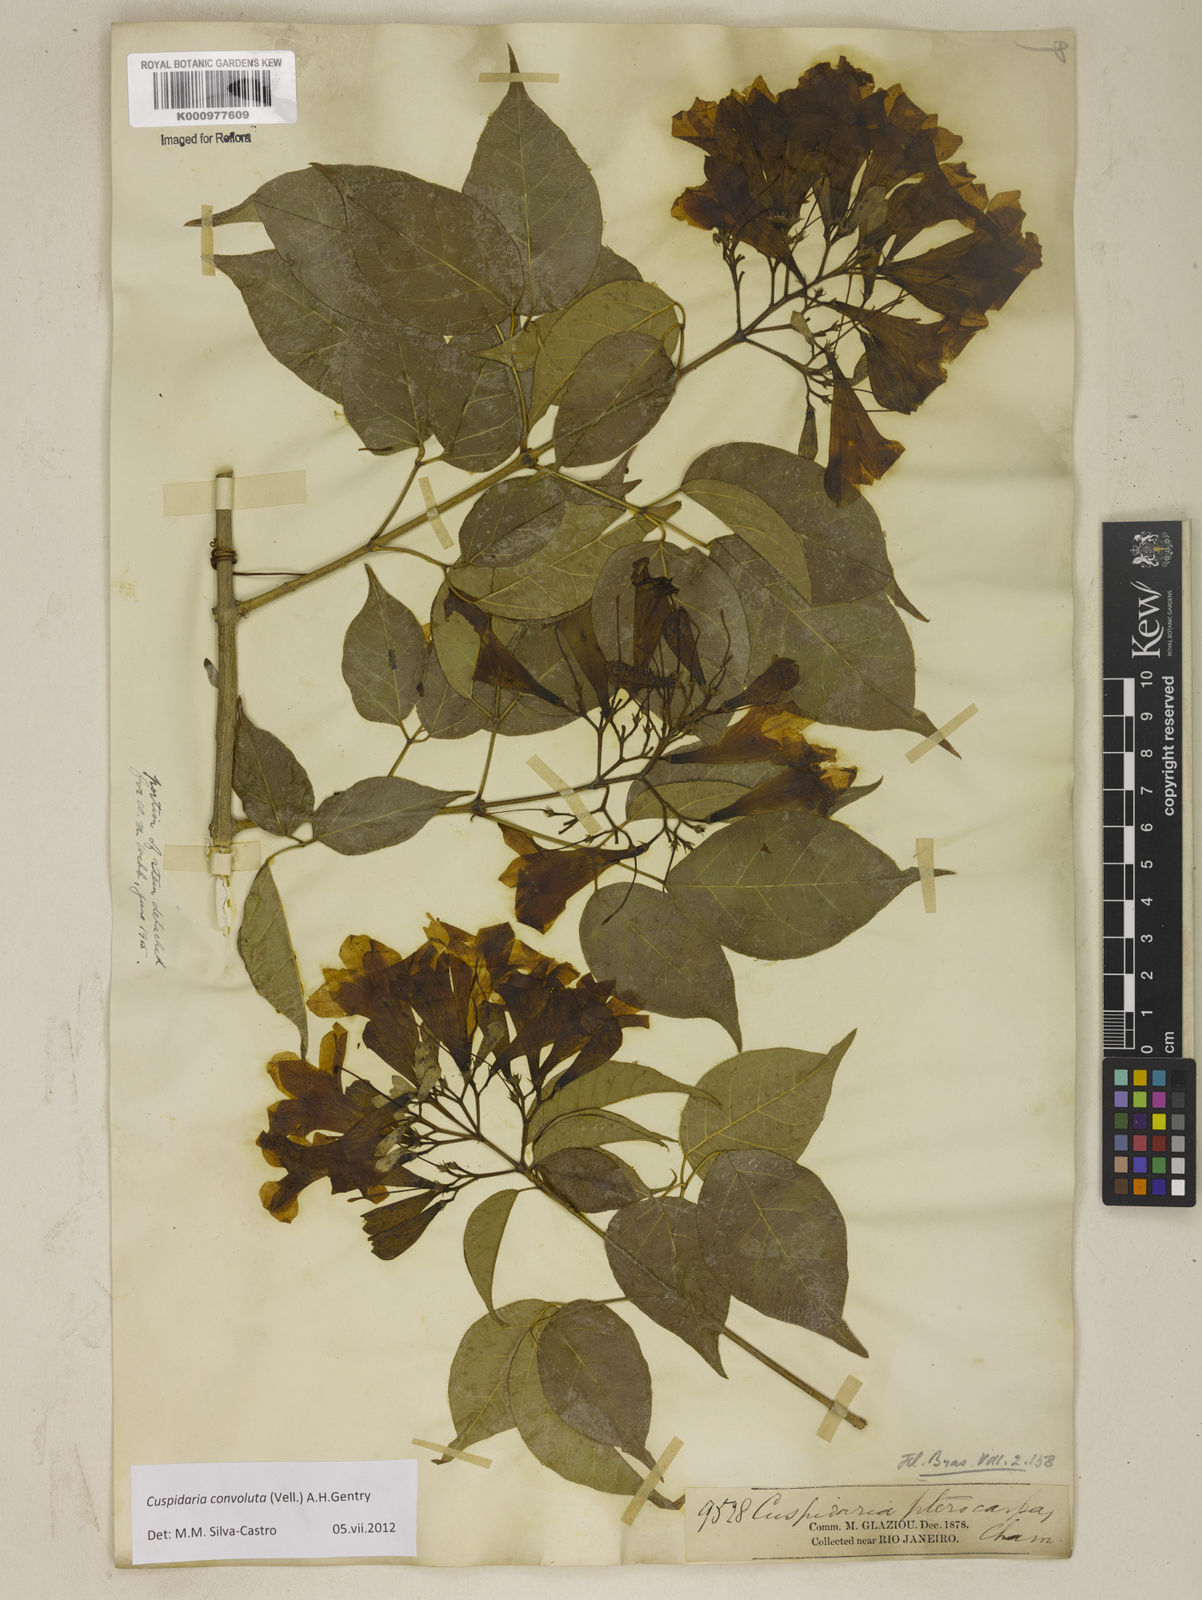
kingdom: Plantae
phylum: Tracheophyta
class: Magnoliopsida
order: Lamiales
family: Bignoniaceae
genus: Cuspidaria
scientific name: Cuspidaria convoluta
